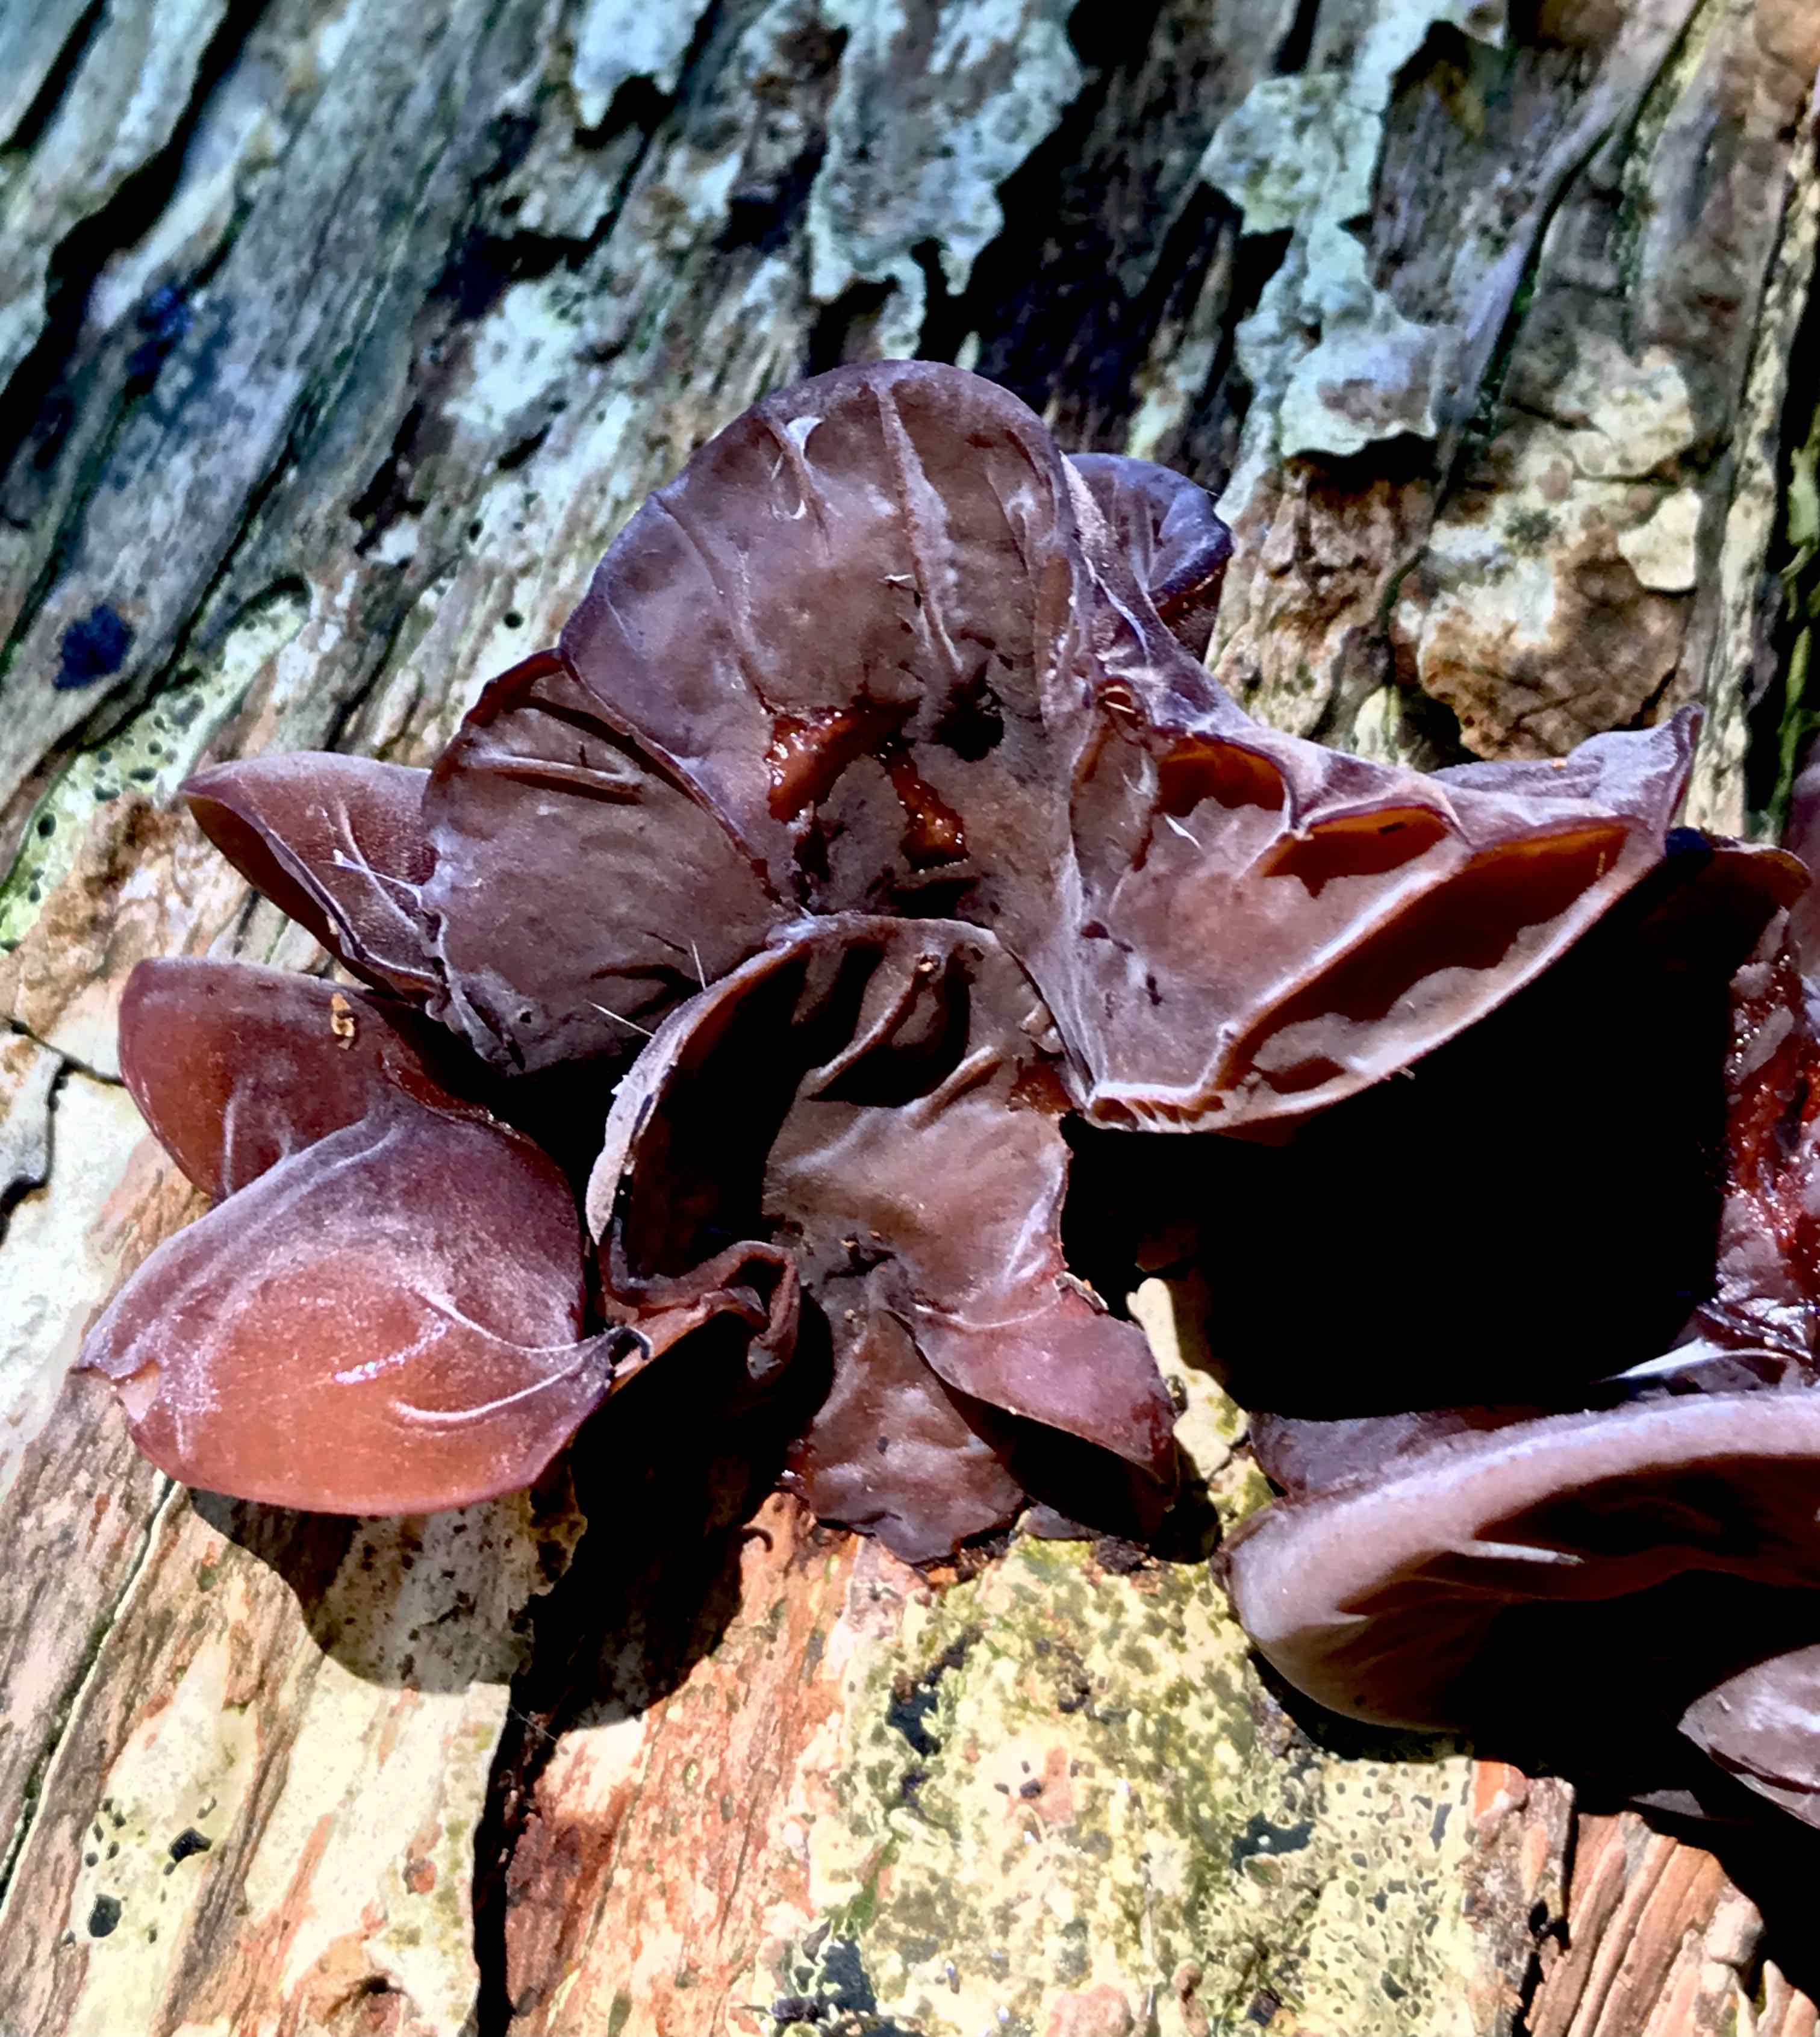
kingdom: Fungi
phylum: Basidiomycota
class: Agaricomycetes
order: Auriculariales
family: Auriculariaceae
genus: Auricularia
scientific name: Auricularia auricula-judae
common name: almindelig judasøre
